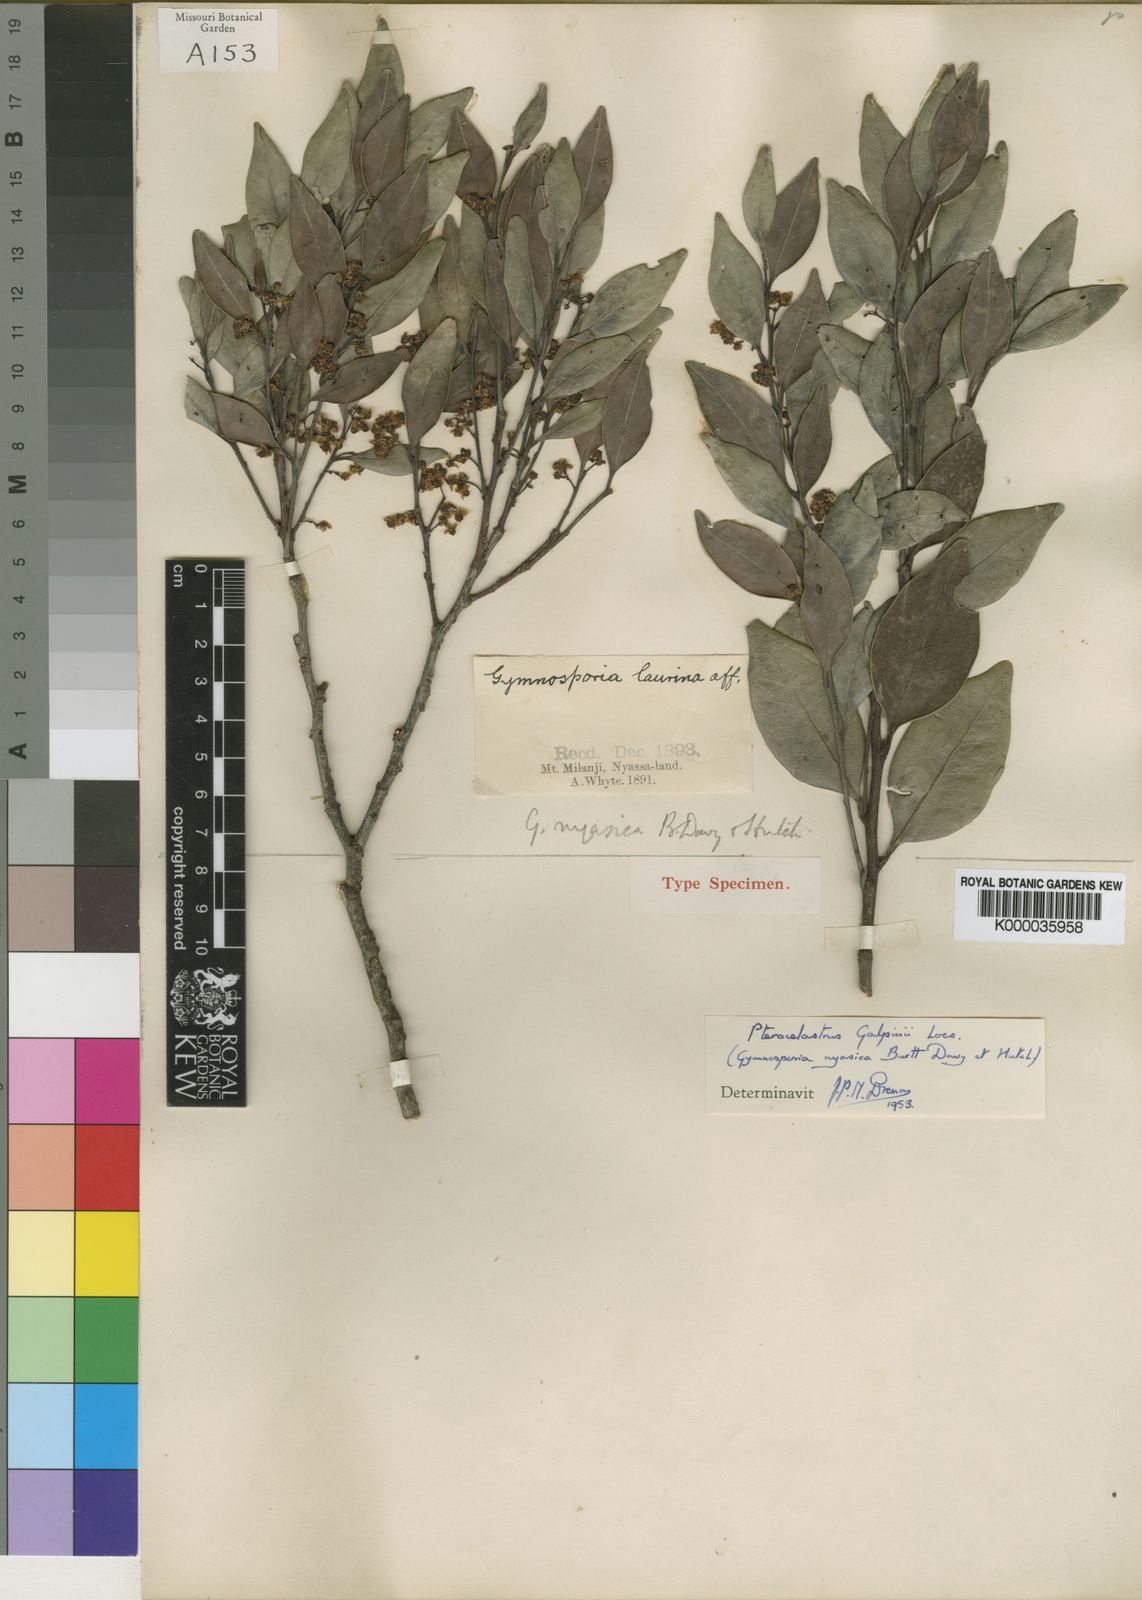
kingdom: Plantae
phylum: Tracheophyta
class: Magnoliopsida
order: Celastrales
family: Celastraceae
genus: Pterocelastrus
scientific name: Pterocelastrus echinatus
